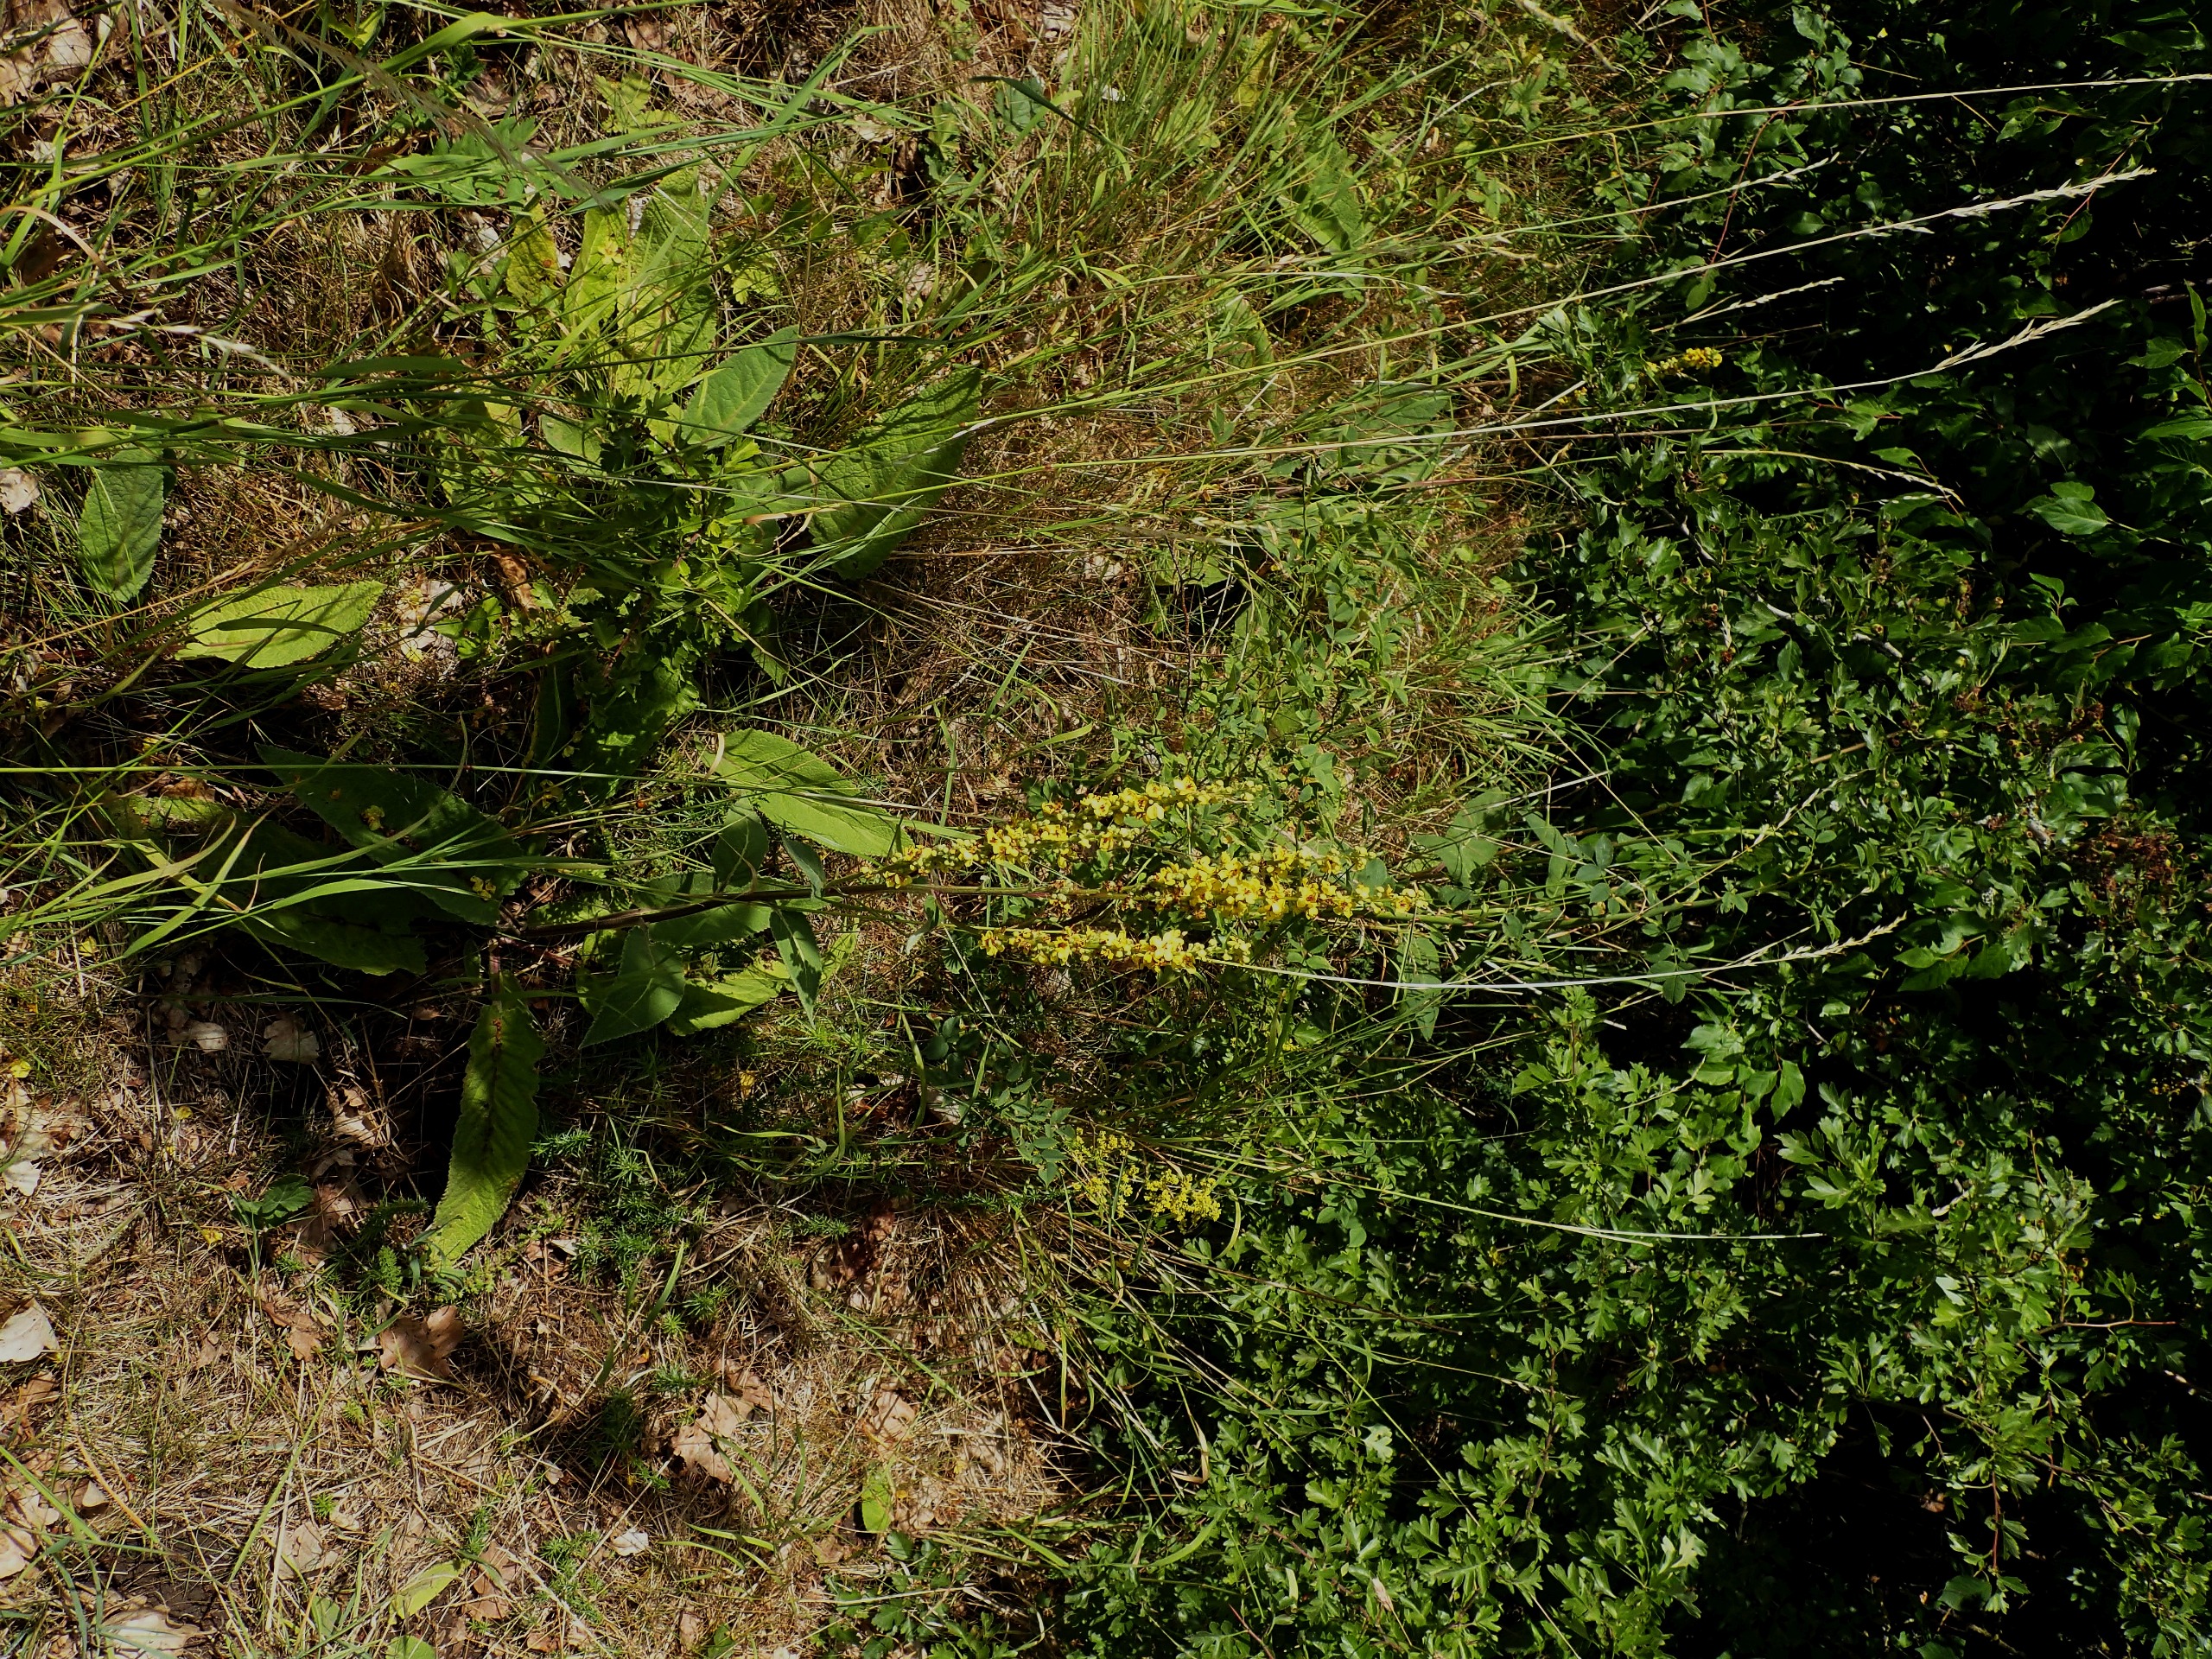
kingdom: Plantae
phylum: Tracheophyta
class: Magnoliopsida
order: Lamiales
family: Scrophulariaceae
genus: Verbascum
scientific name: Verbascum nigrum
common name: Mørk kongelys
